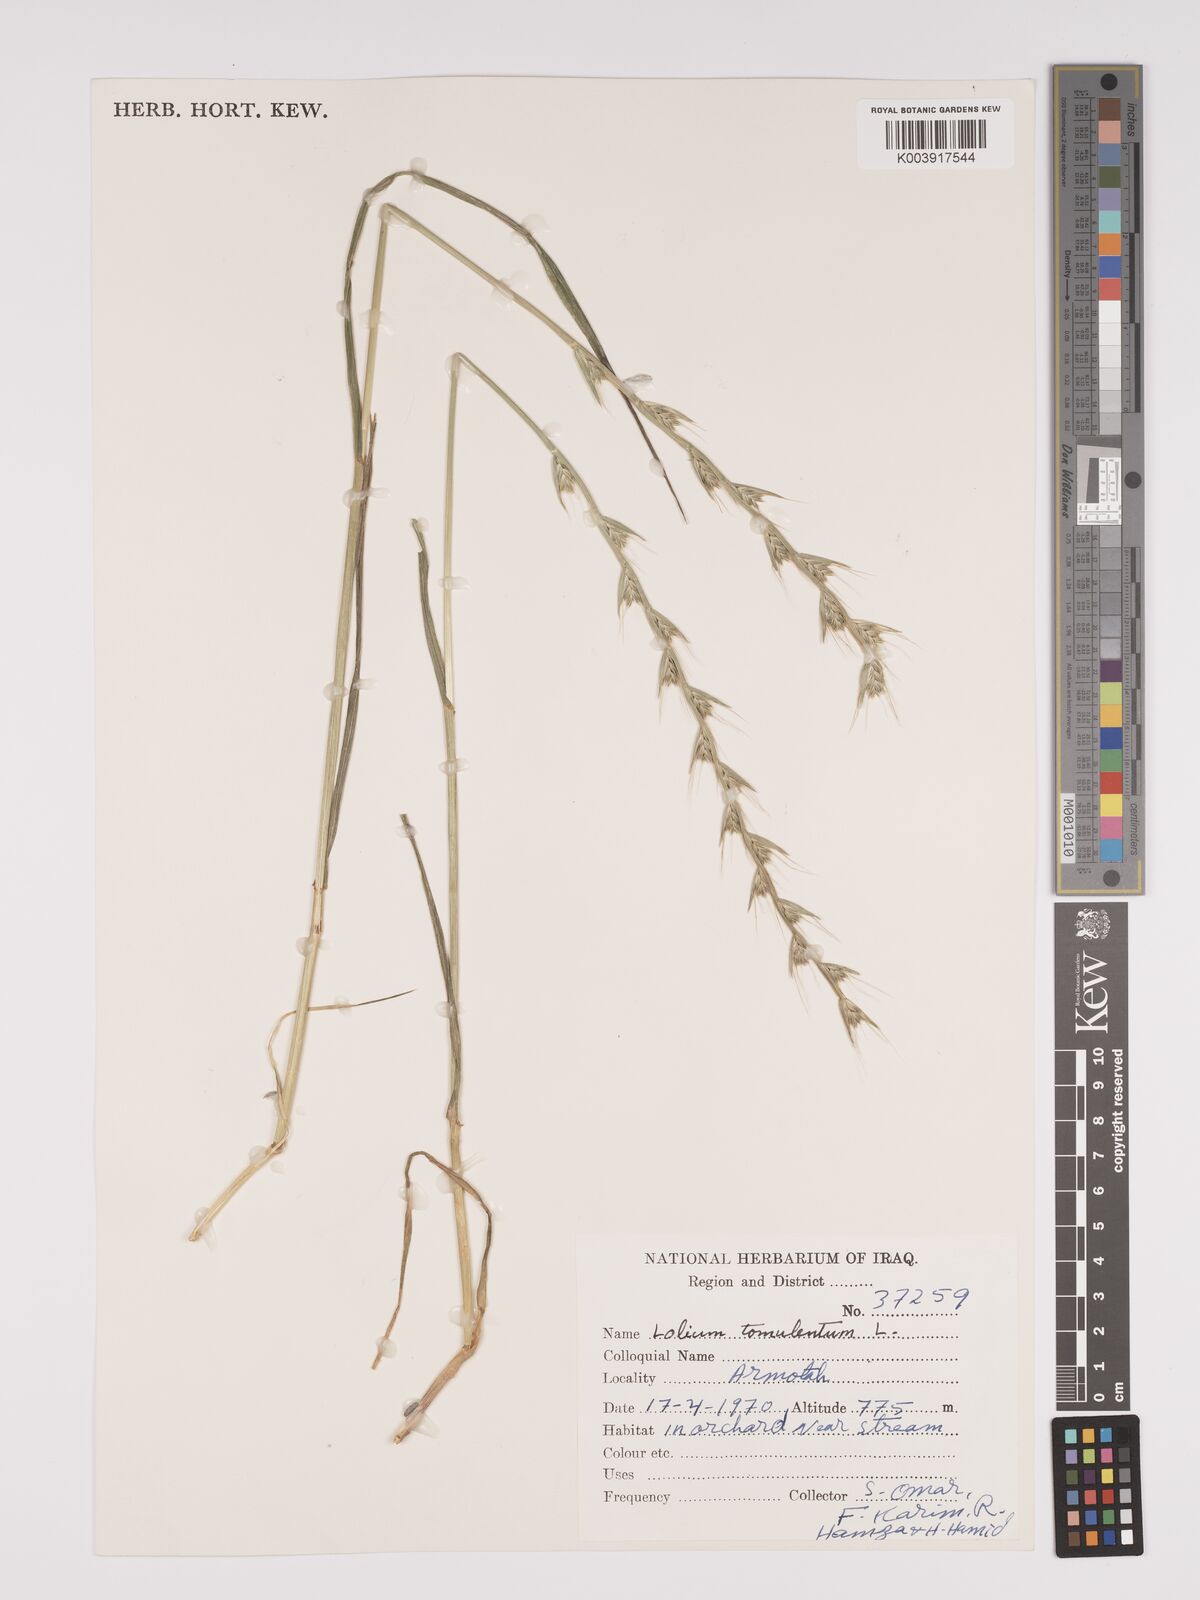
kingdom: Plantae
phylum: Tracheophyta
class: Liliopsida
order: Poales
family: Poaceae
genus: Lolium
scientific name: Lolium temulentum
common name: Darnel
